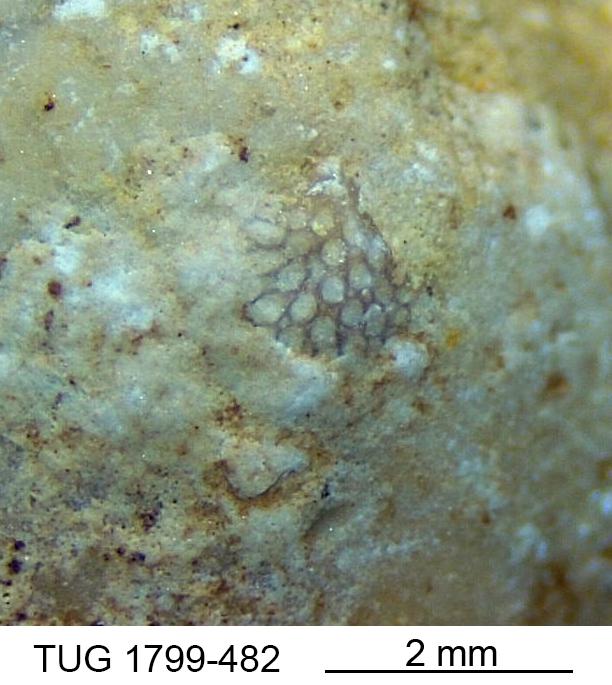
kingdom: Animalia
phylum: Bryozoa
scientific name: Bryozoa
